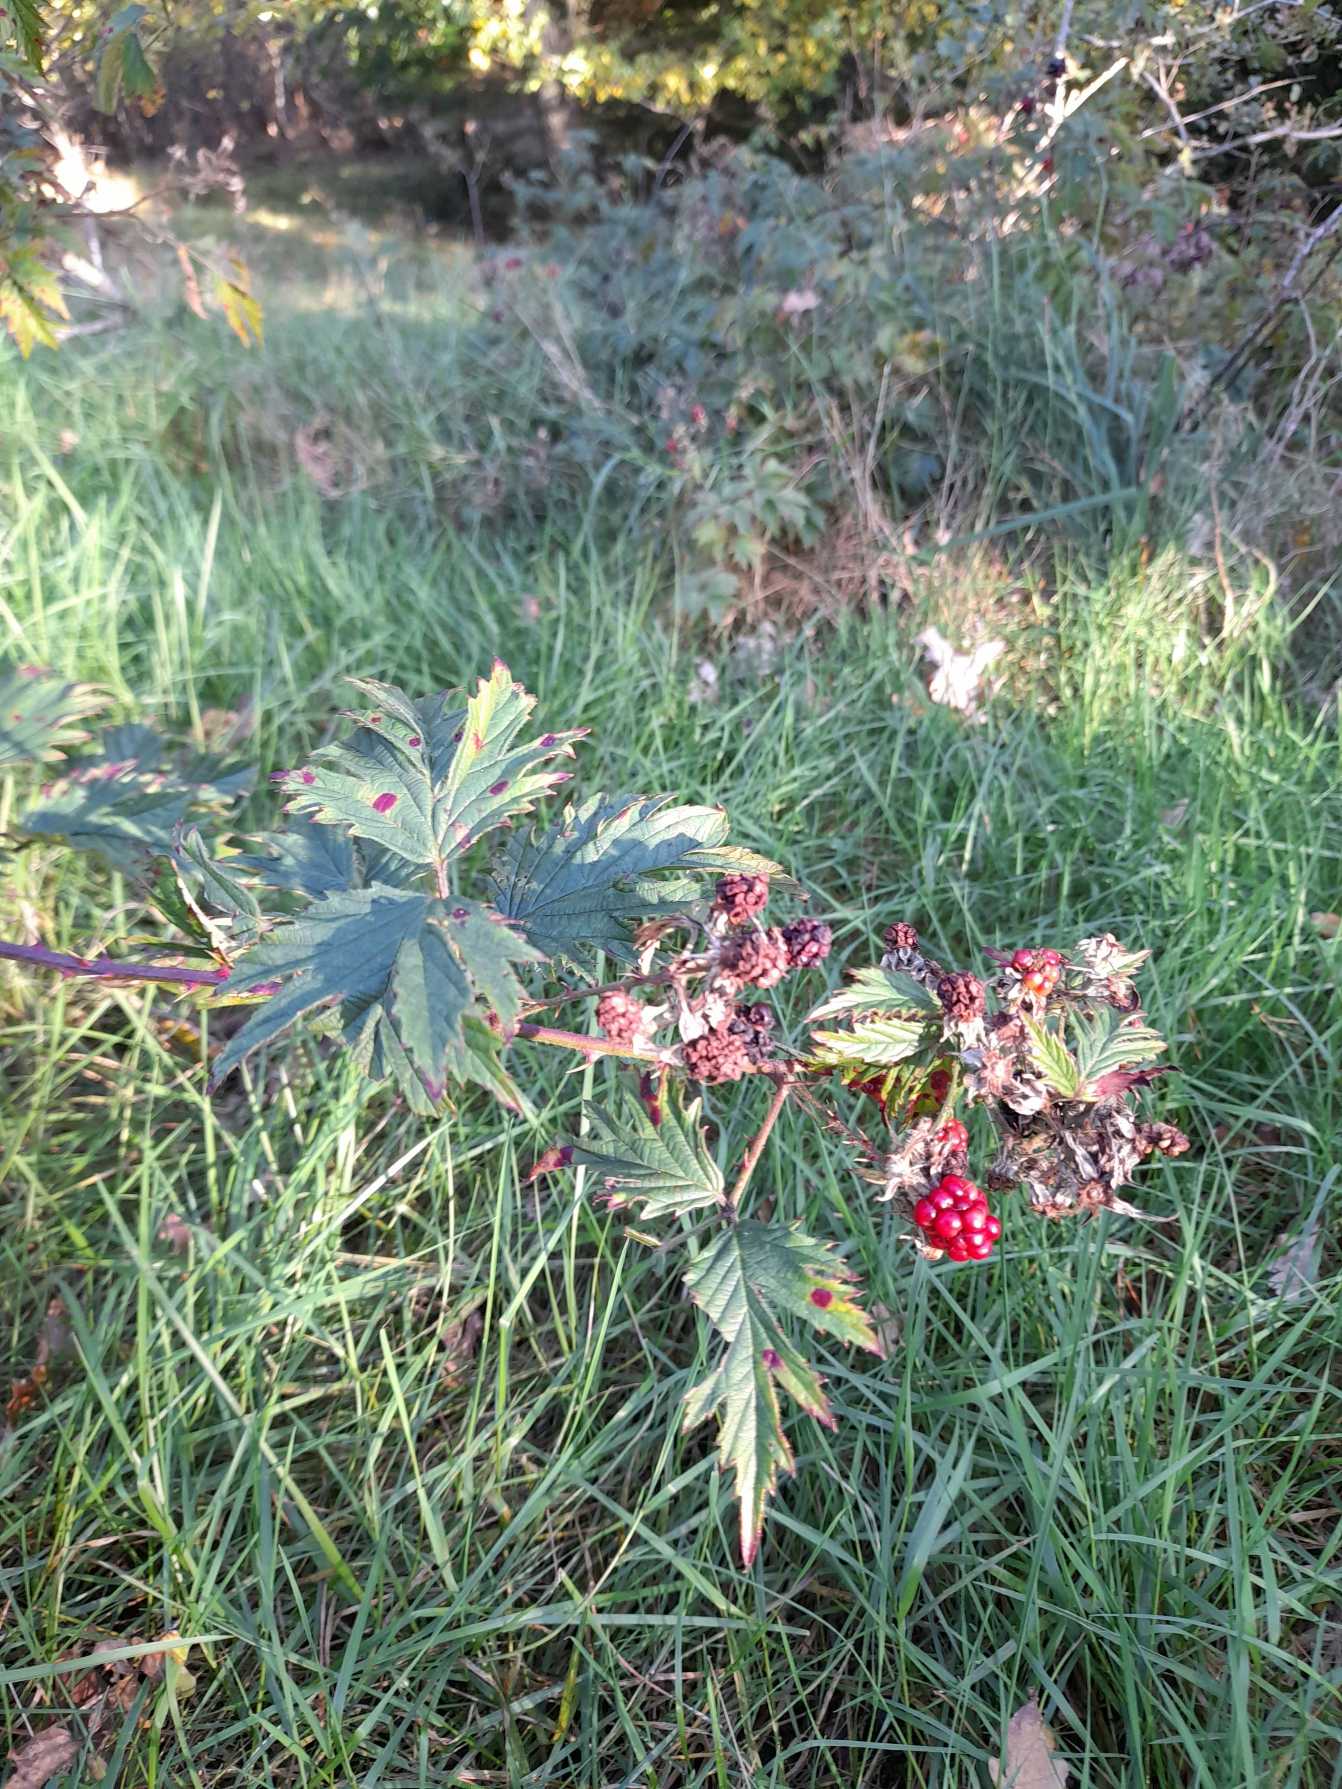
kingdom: Plantae
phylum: Tracheophyta
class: Magnoliopsida
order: Rosales
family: Rosaceae
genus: Rubus
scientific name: Rubus laciniatus
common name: Fliget brombær
